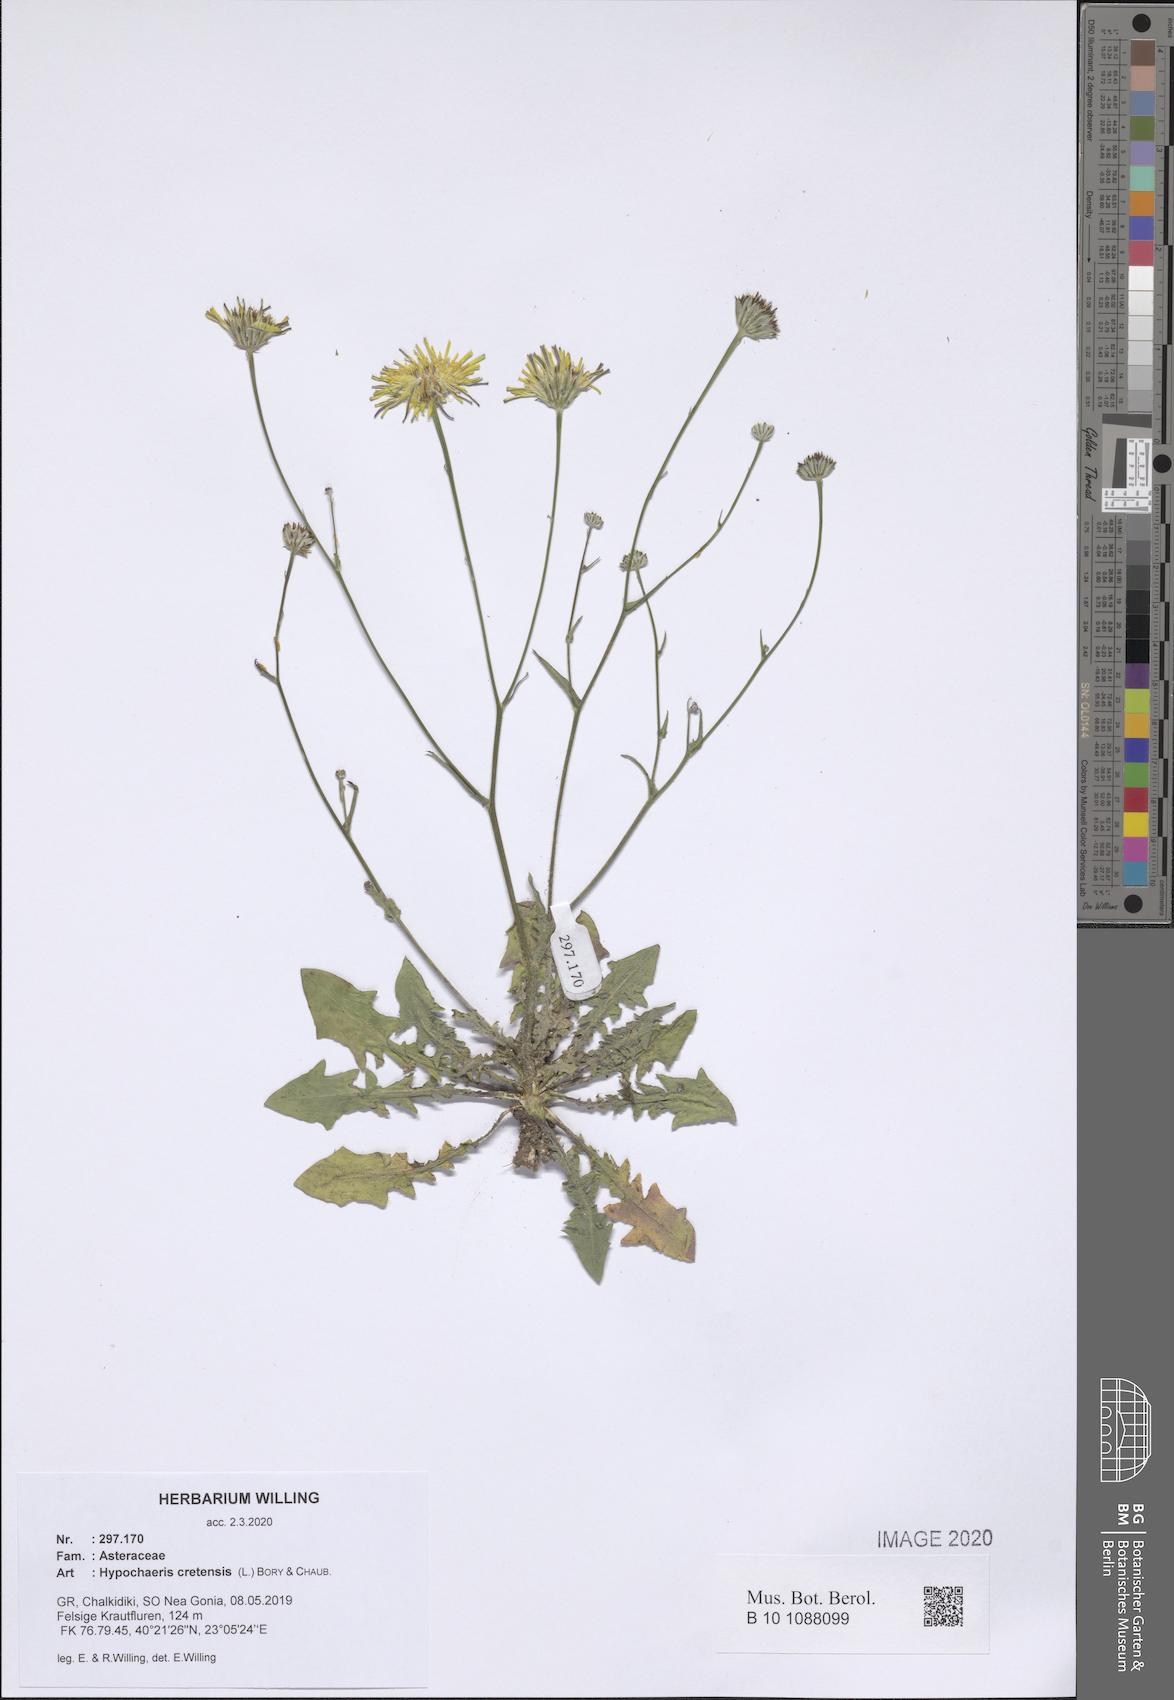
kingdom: Plantae
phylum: Tracheophyta
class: Magnoliopsida
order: Asterales
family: Asteraceae
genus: Hypochaeris
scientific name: Hypochaeris cretensis
